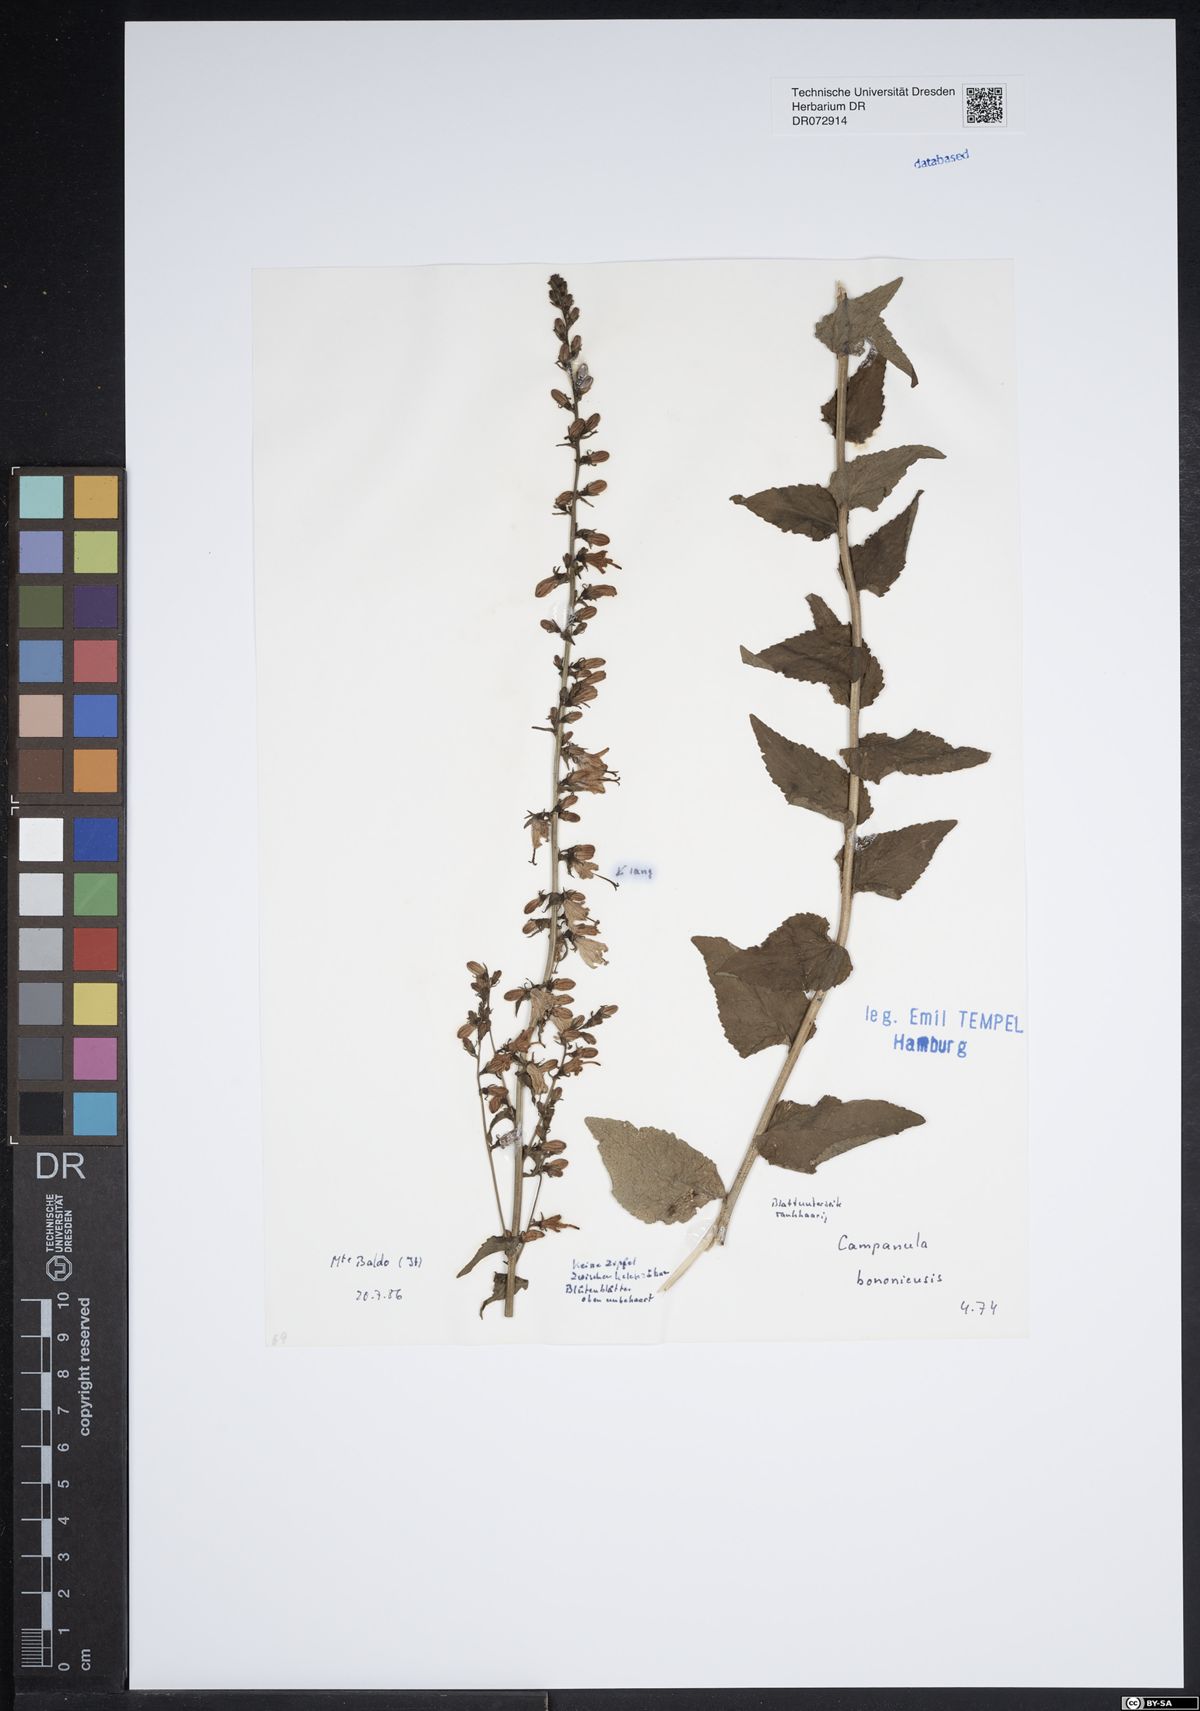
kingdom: Plantae
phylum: Tracheophyta
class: Magnoliopsida
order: Asterales
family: Campanulaceae
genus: Campanula
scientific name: Campanula bononiensis
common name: Pale bellflower
